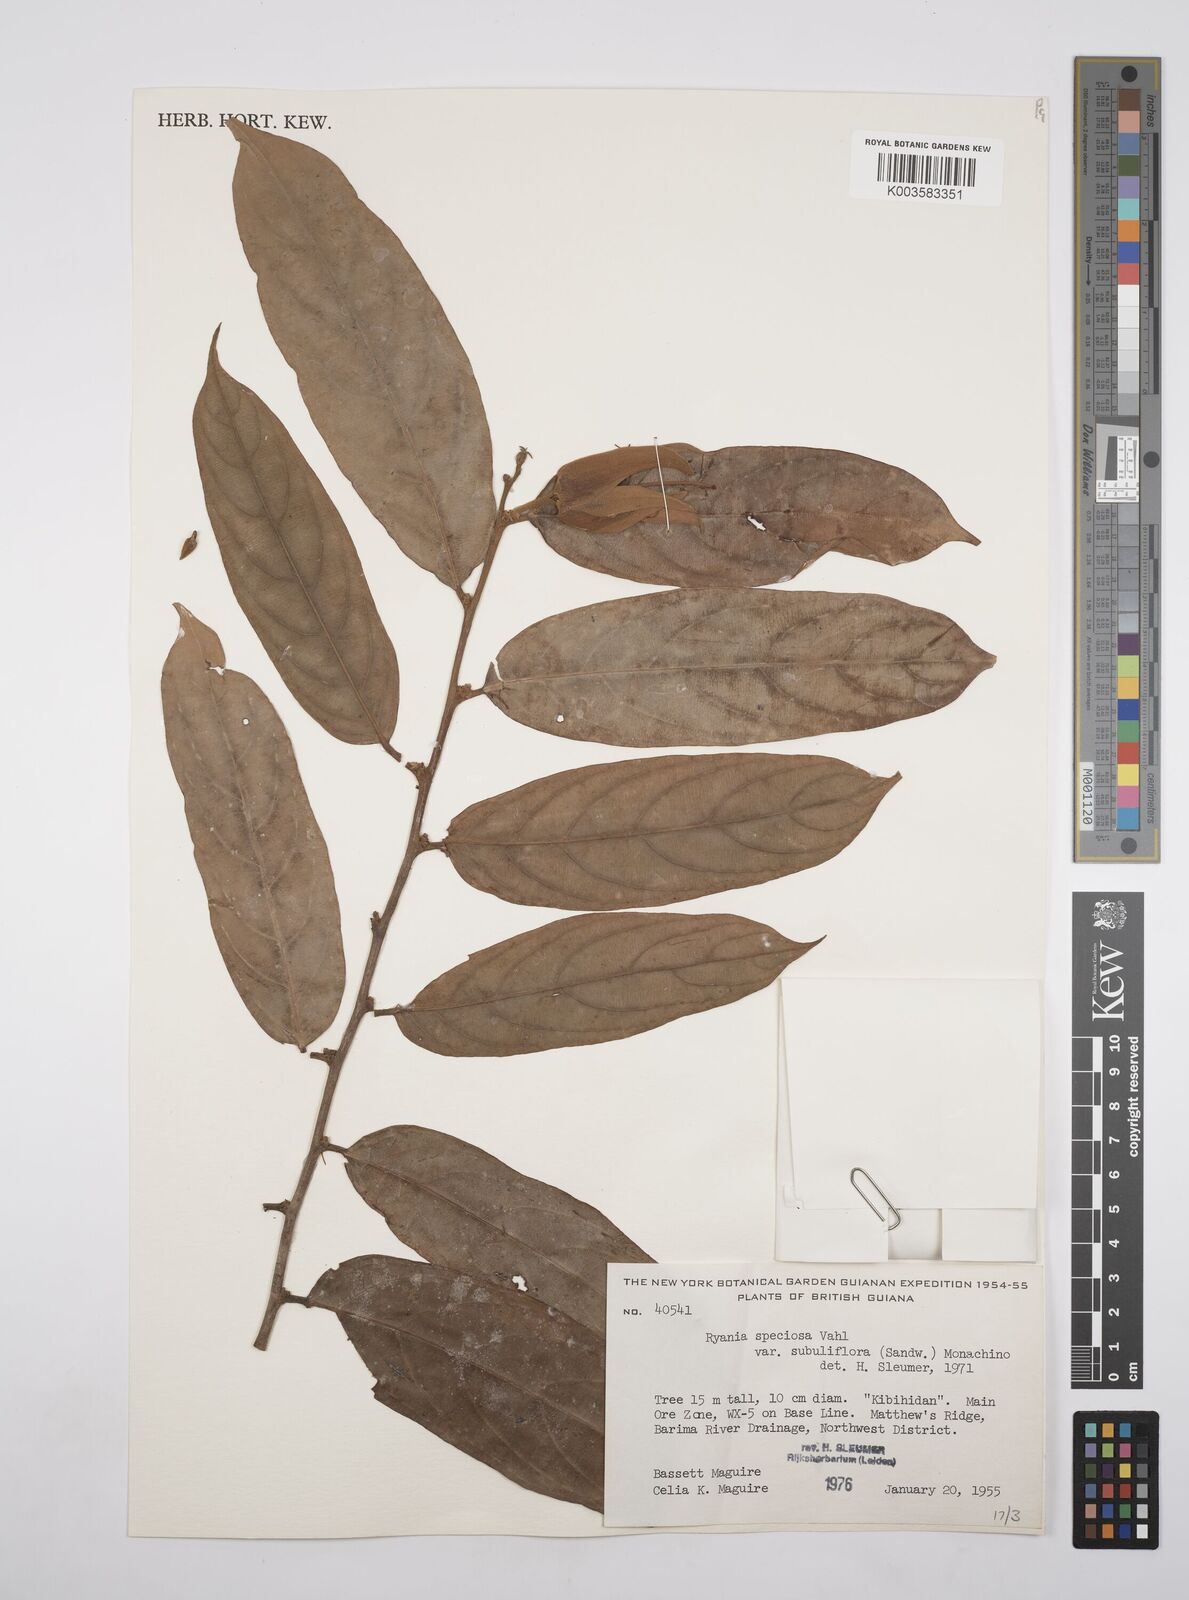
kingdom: Plantae
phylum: Tracheophyta
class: Magnoliopsida
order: Malpighiales
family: Salicaceae
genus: Ryania
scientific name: Ryania speciosa
